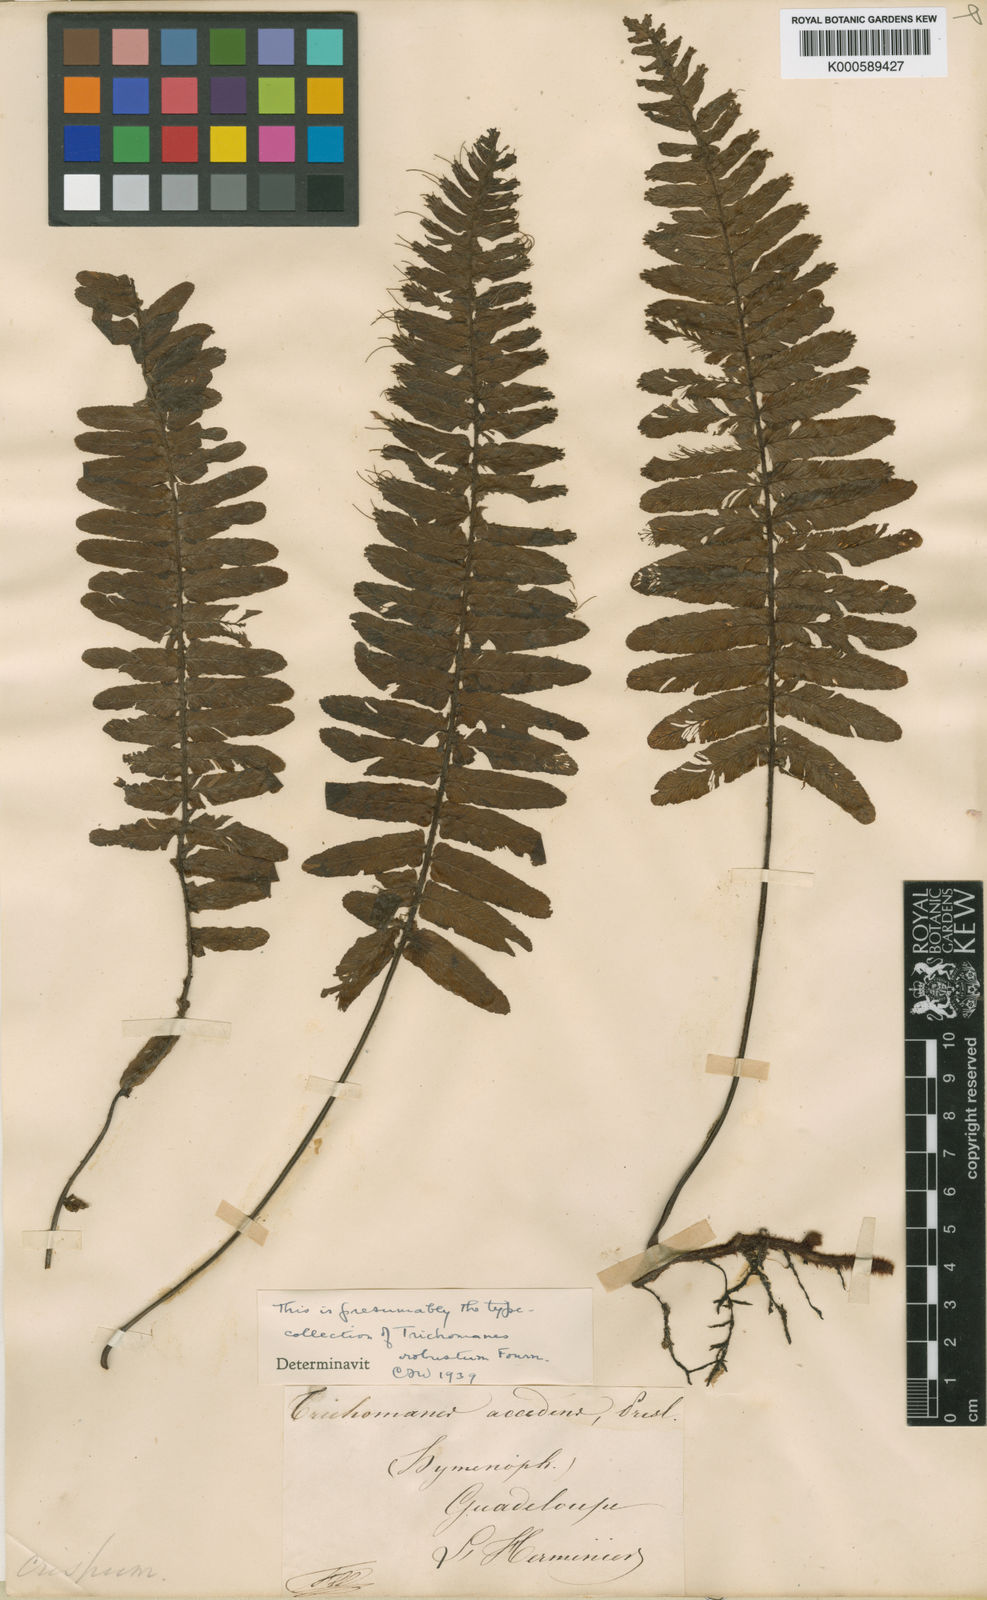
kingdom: Plantae
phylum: Tracheophyta
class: Polypodiopsida
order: Hymenophyllales
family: Hymenophyllaceae
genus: Trichomanes
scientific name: Trichomanes accedens
